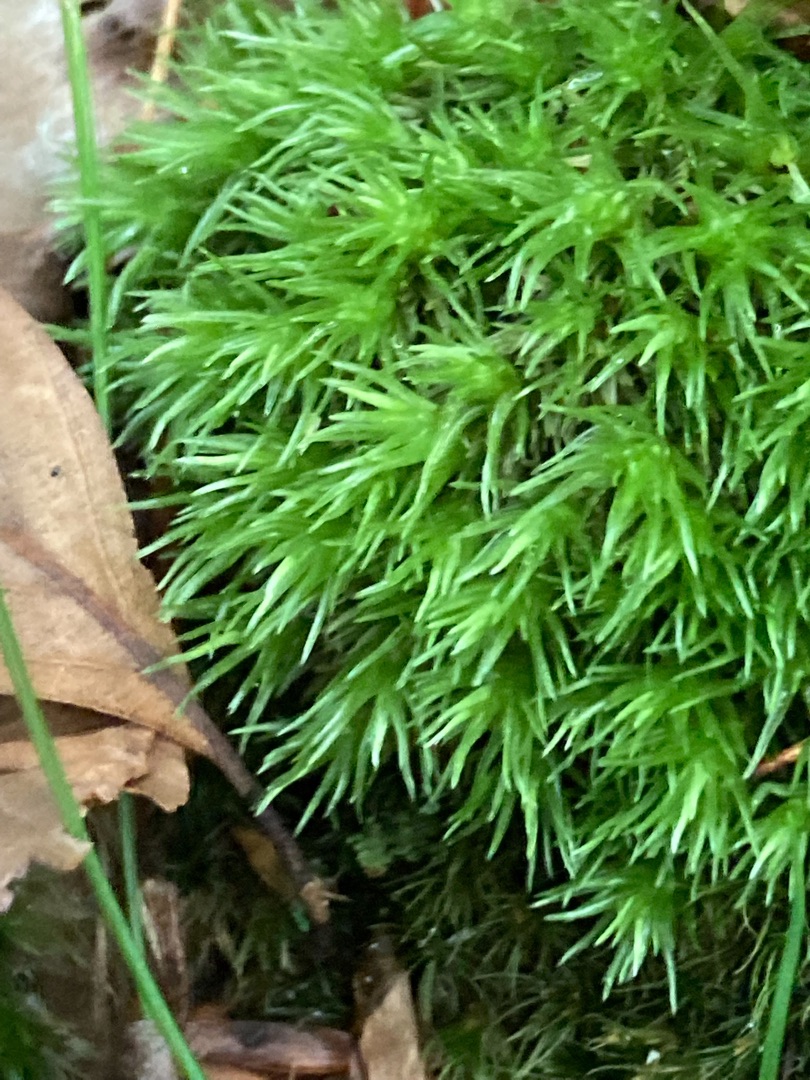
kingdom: Plantae
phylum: Bryophyta
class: Bryopsida
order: Dicranales
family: Leucobryaceae
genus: Leucobryum
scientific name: Leucobryum glaucum
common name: Almindelig hvidmos
